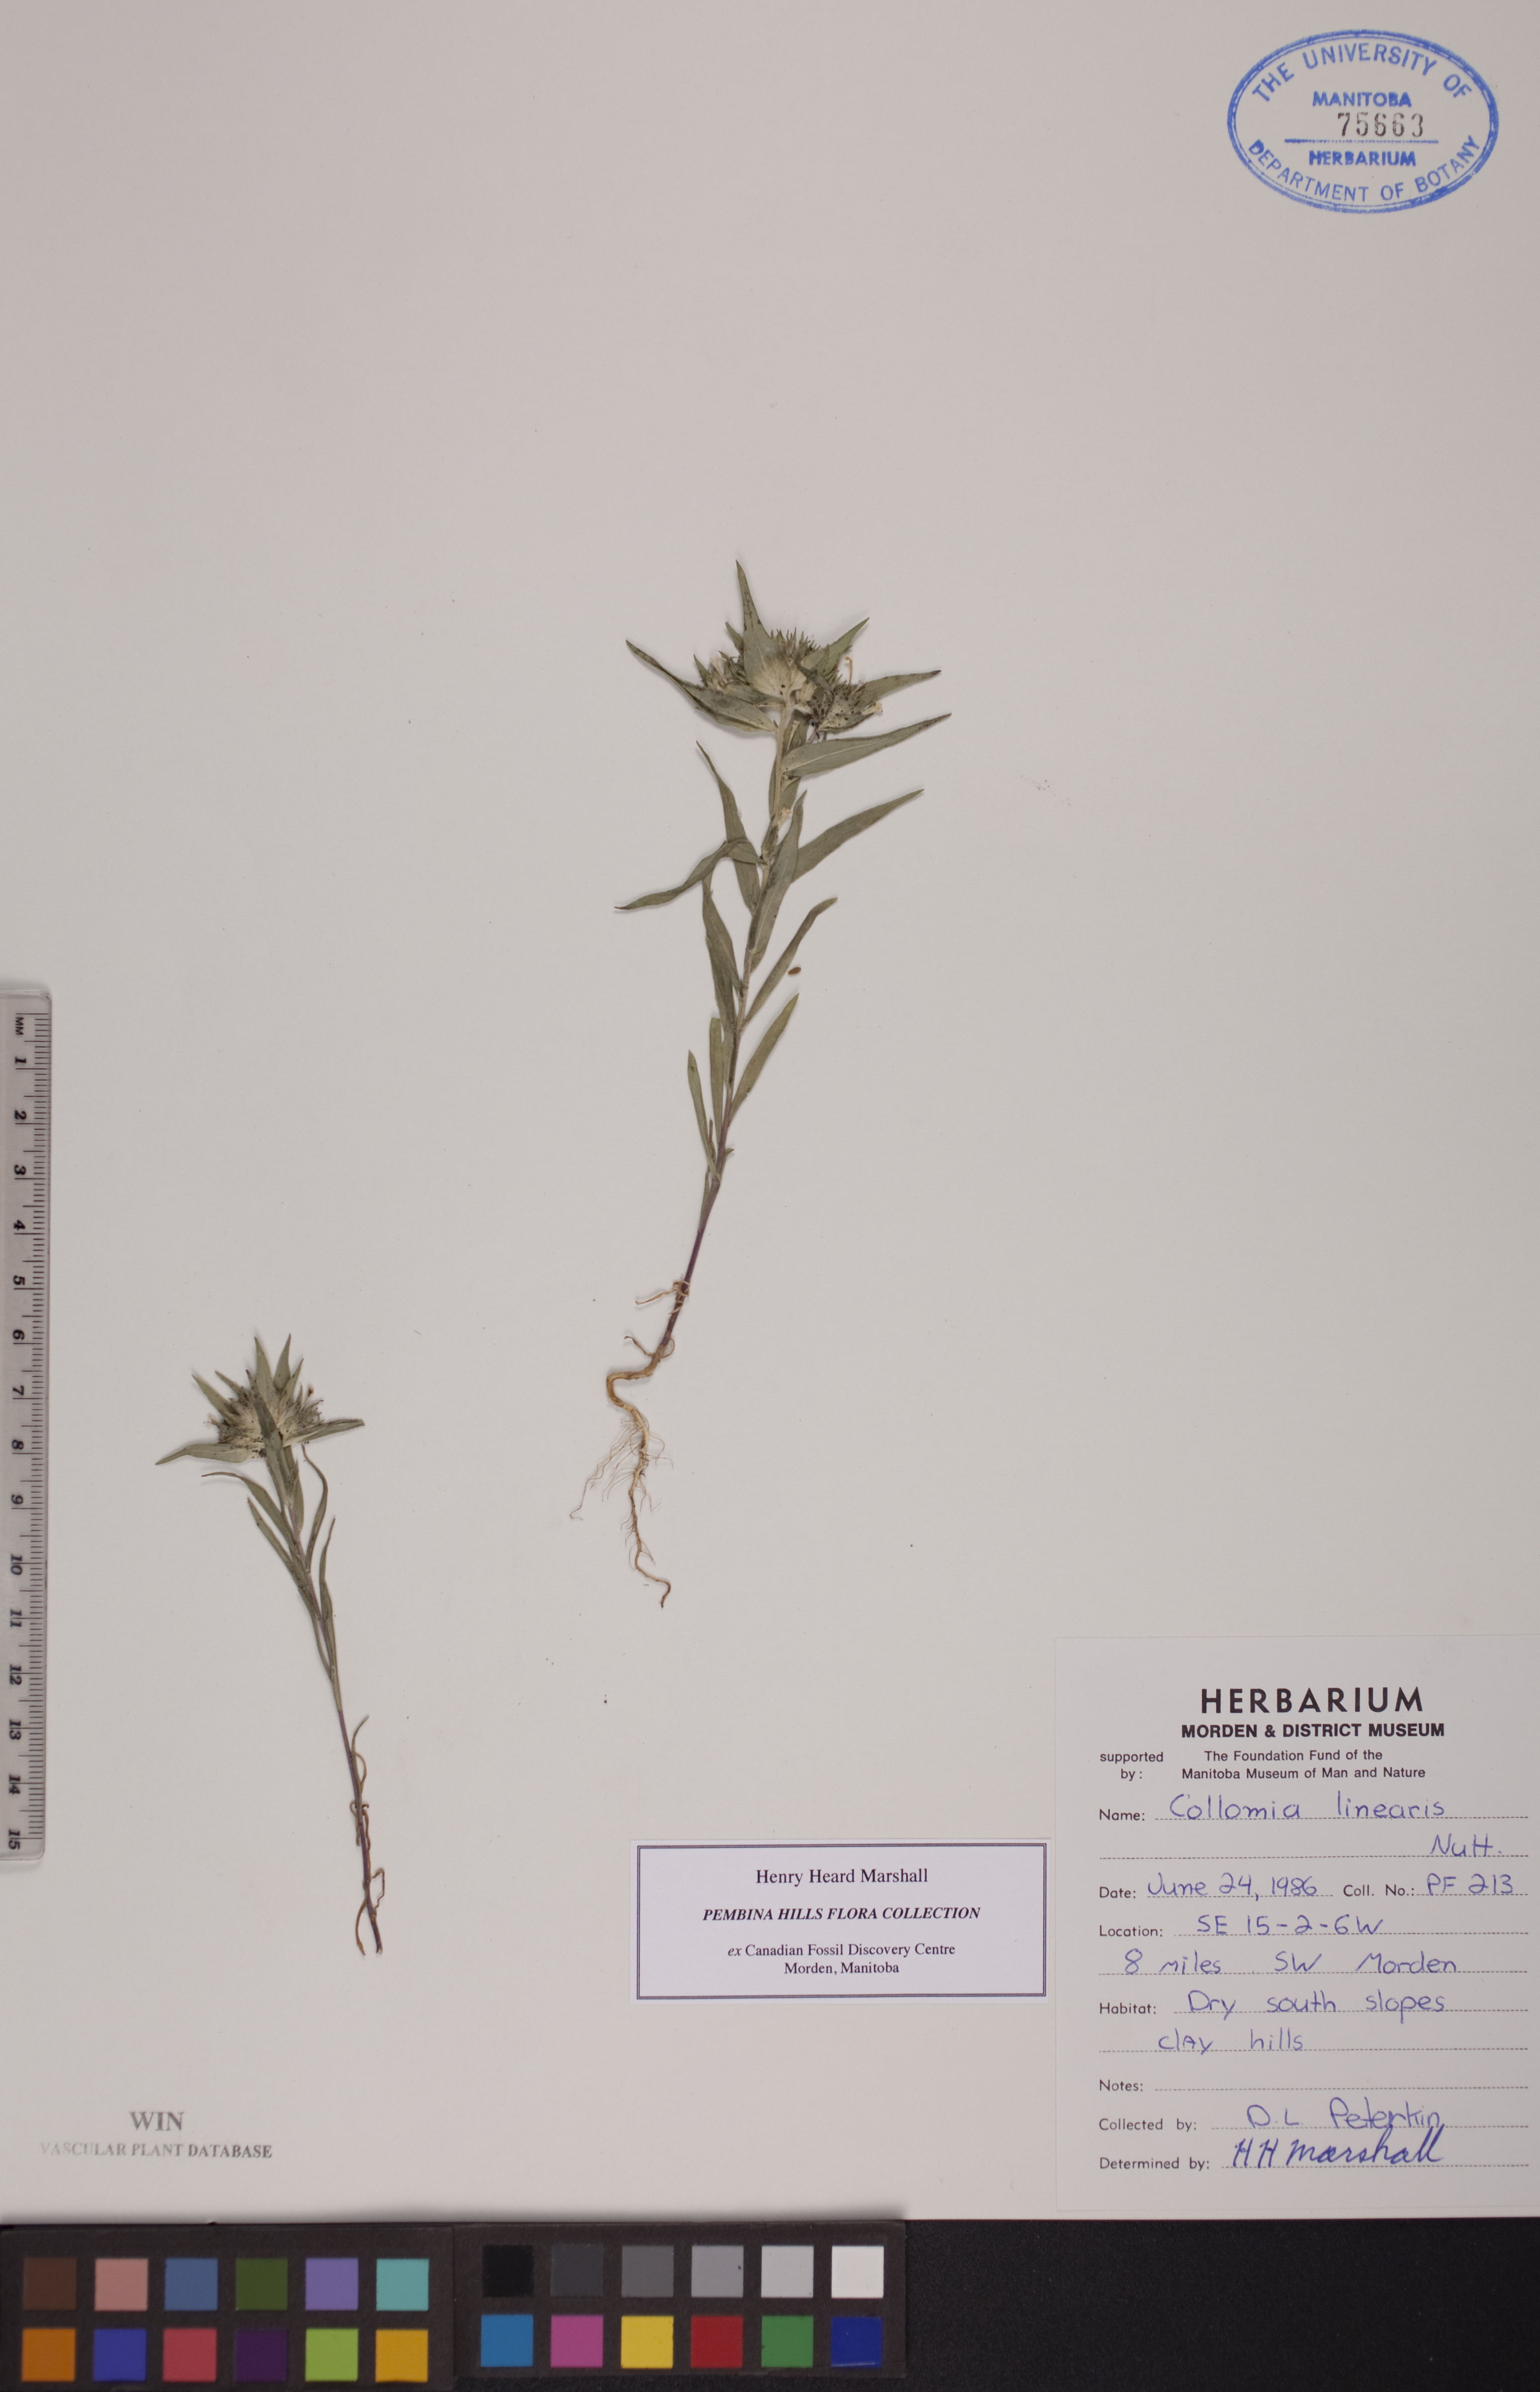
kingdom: Plantae
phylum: Tracheophyta
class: Magnoliopsida
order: Ericales
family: Polemoniaceae
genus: Collomia
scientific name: Collomia linearis
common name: Tiny trumpet
